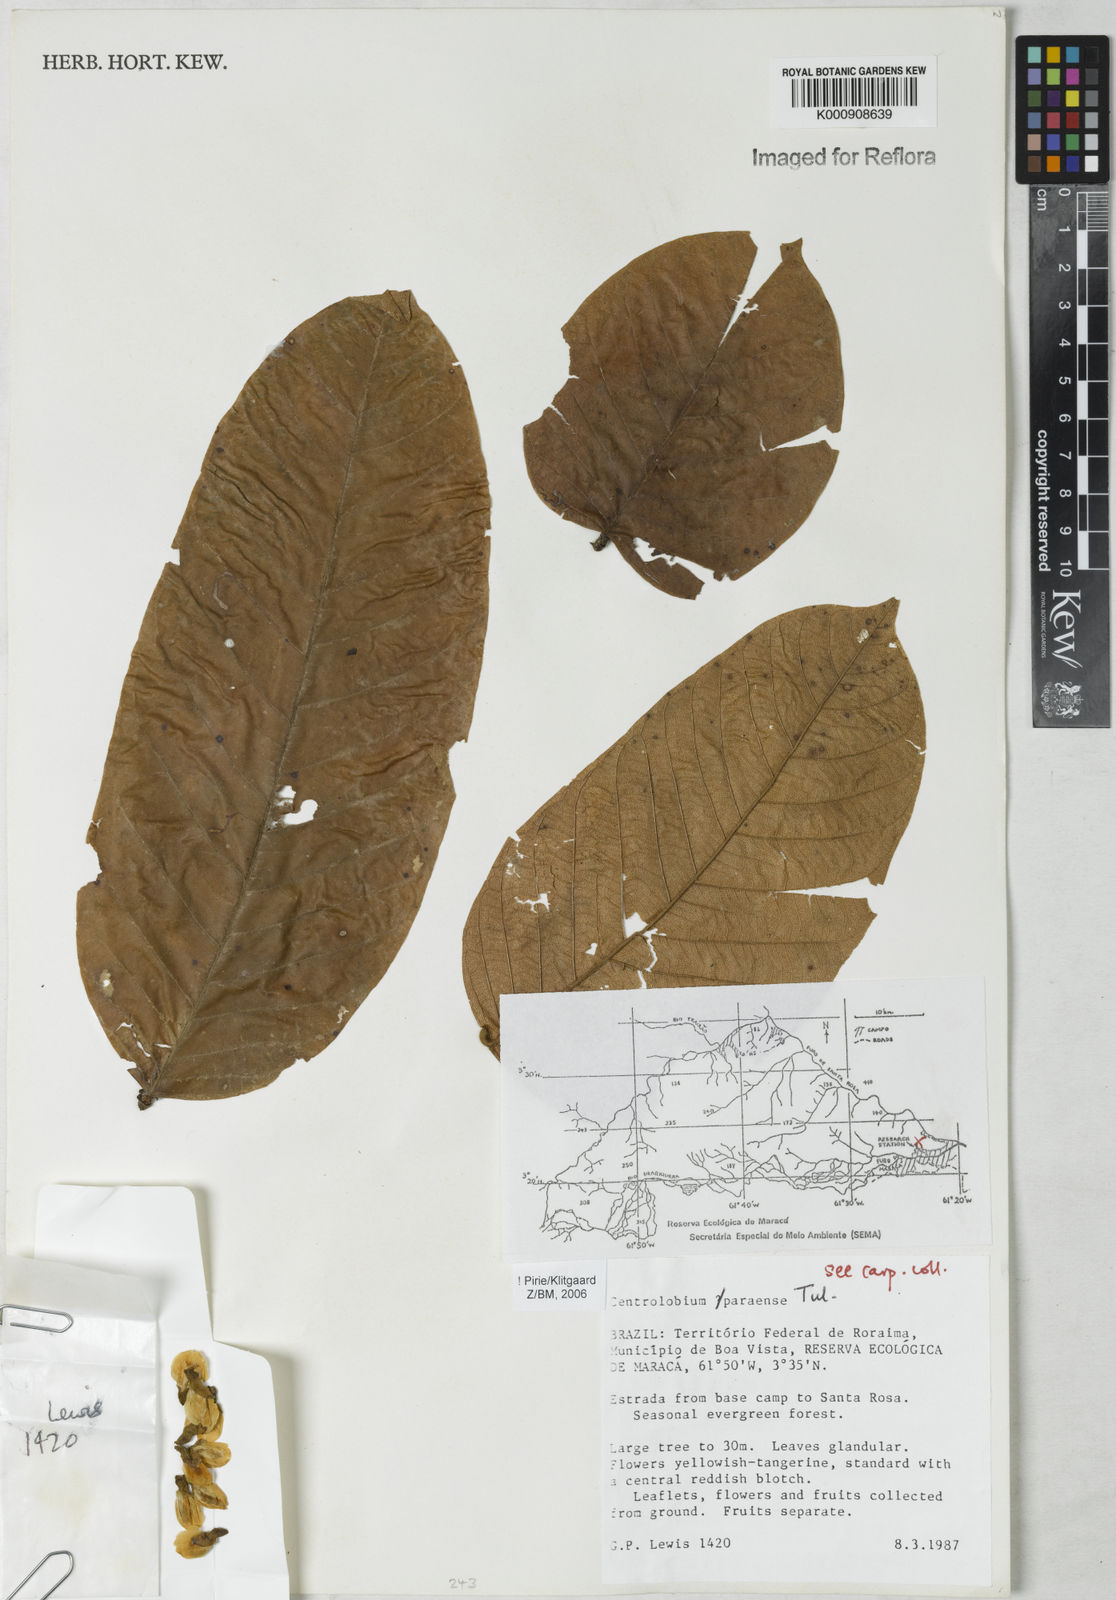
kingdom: Plantae
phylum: Tracheophyta
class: Magnoliopsida
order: Fabales
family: Fabaceae
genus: Centrolobium
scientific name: Centrolobium paraense
